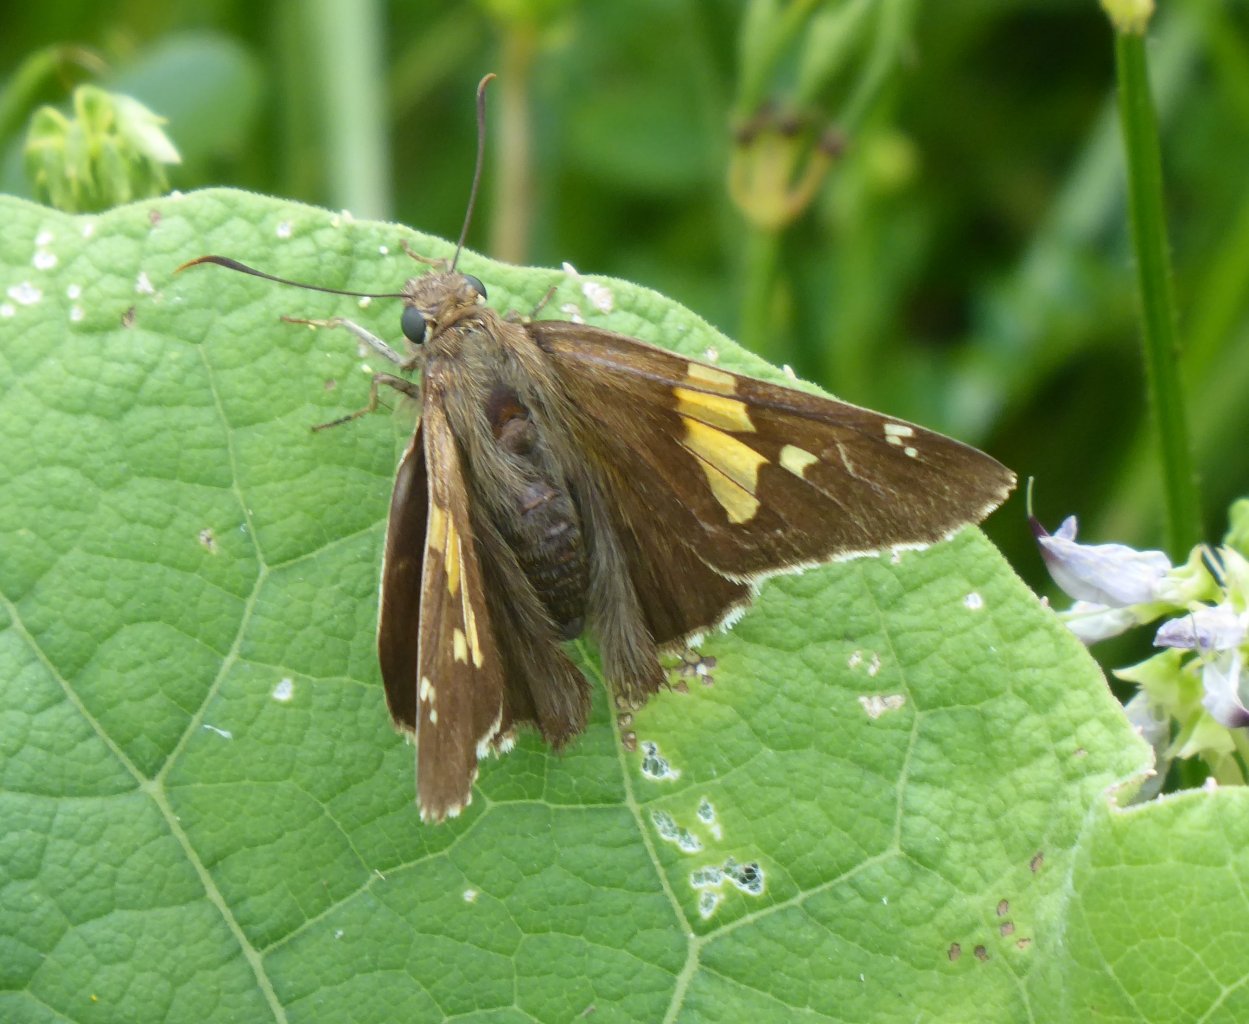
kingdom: Animalia
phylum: Arthropoda
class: Insecta
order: Lepidoptera
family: Hesperiidae
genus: Epargyreus
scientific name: Epargyreus clarus
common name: Silver-spotted Skipper
